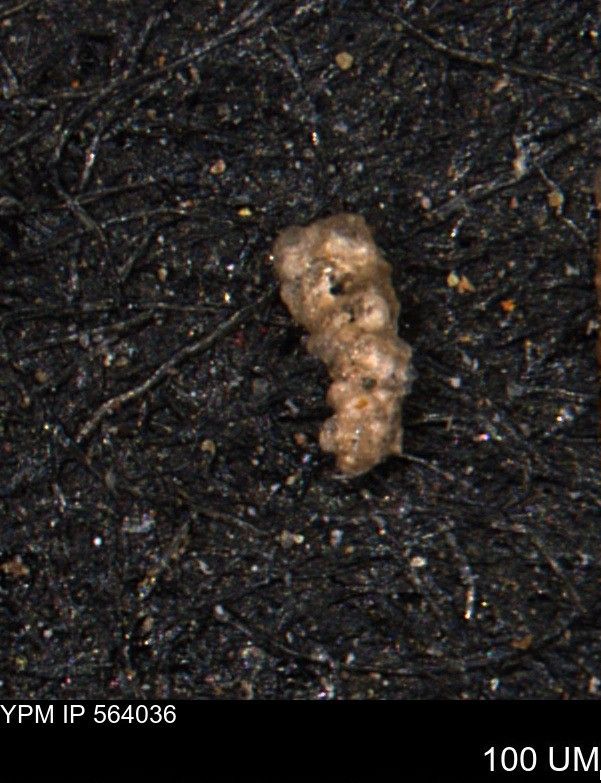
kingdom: Chromista
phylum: Foraminifera
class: Globothalamea
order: Loftusiida
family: Ataxophragmiidae
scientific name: Ataxophragmiidae
